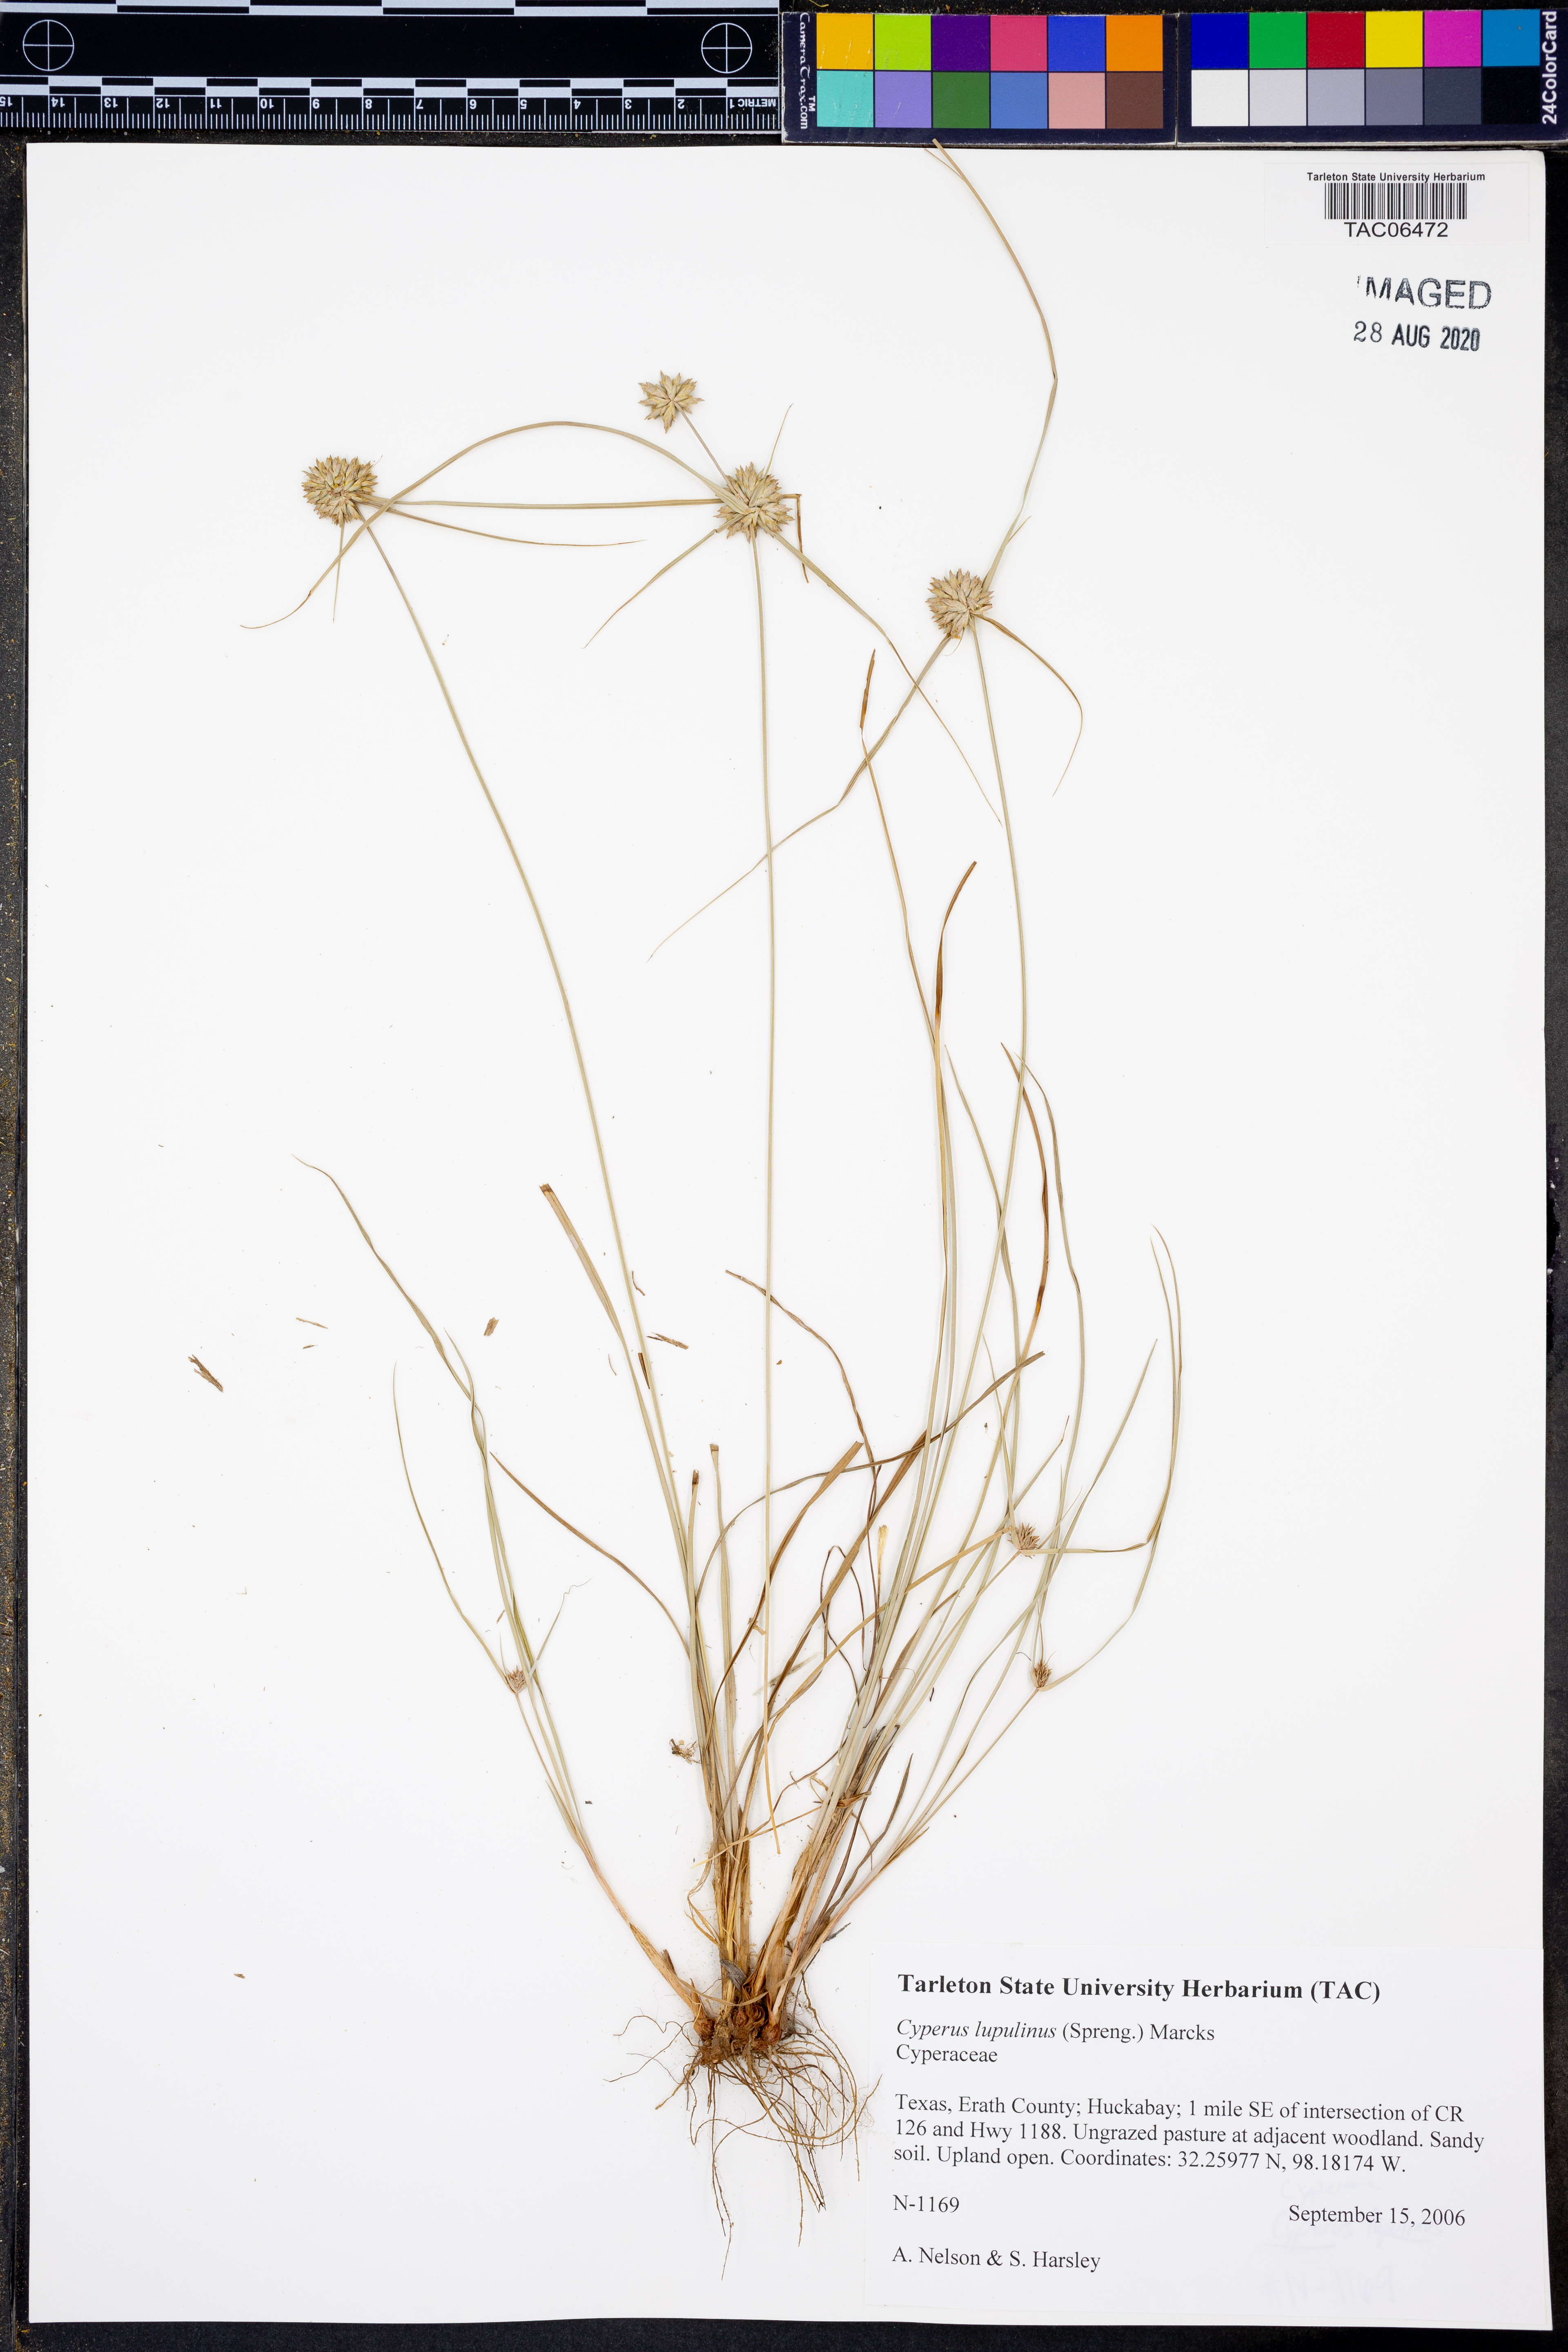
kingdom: Plantae
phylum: Tracheophyta
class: Liliopsida
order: Poales
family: Cyperaceae
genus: Cyperus
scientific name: Cyperus lupulinus
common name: Great plains flatsedge
